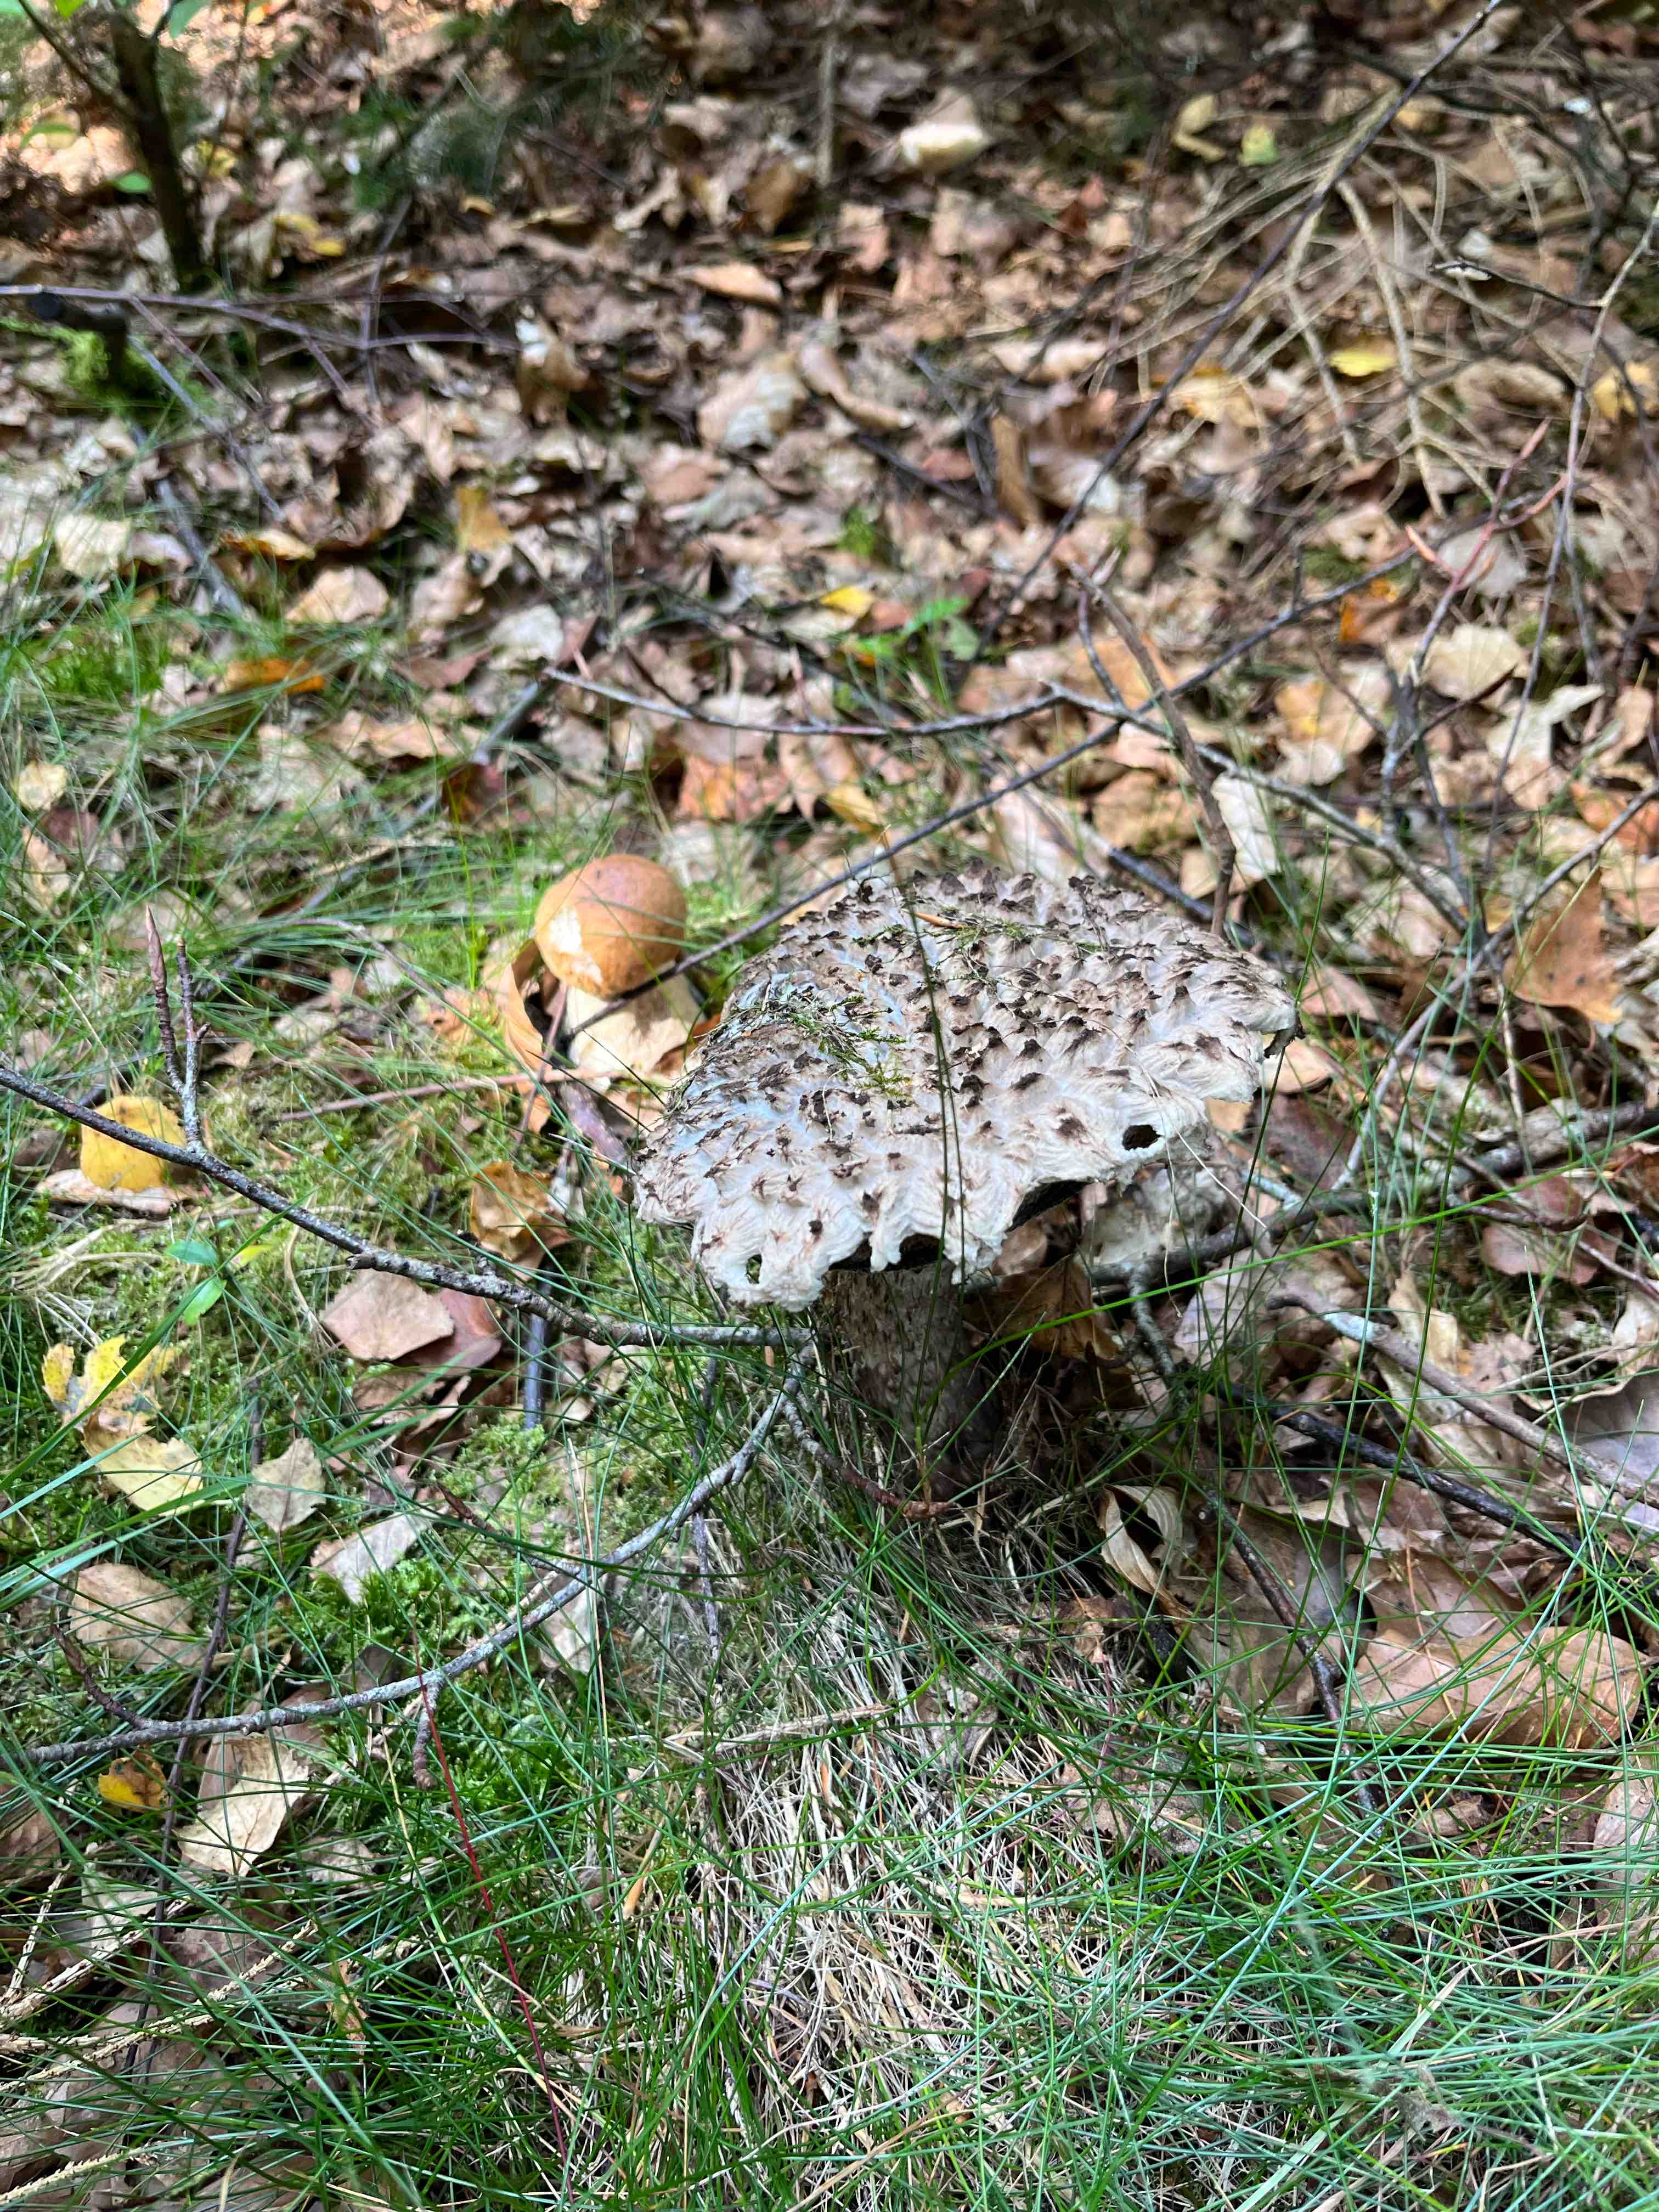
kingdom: Fungi
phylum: Basidiomycota
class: Agaricomycetes
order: Boletales
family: Boletaceae
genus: Strobilomyces
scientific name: Strobilomyces strobilaceus
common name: koglerørhat
